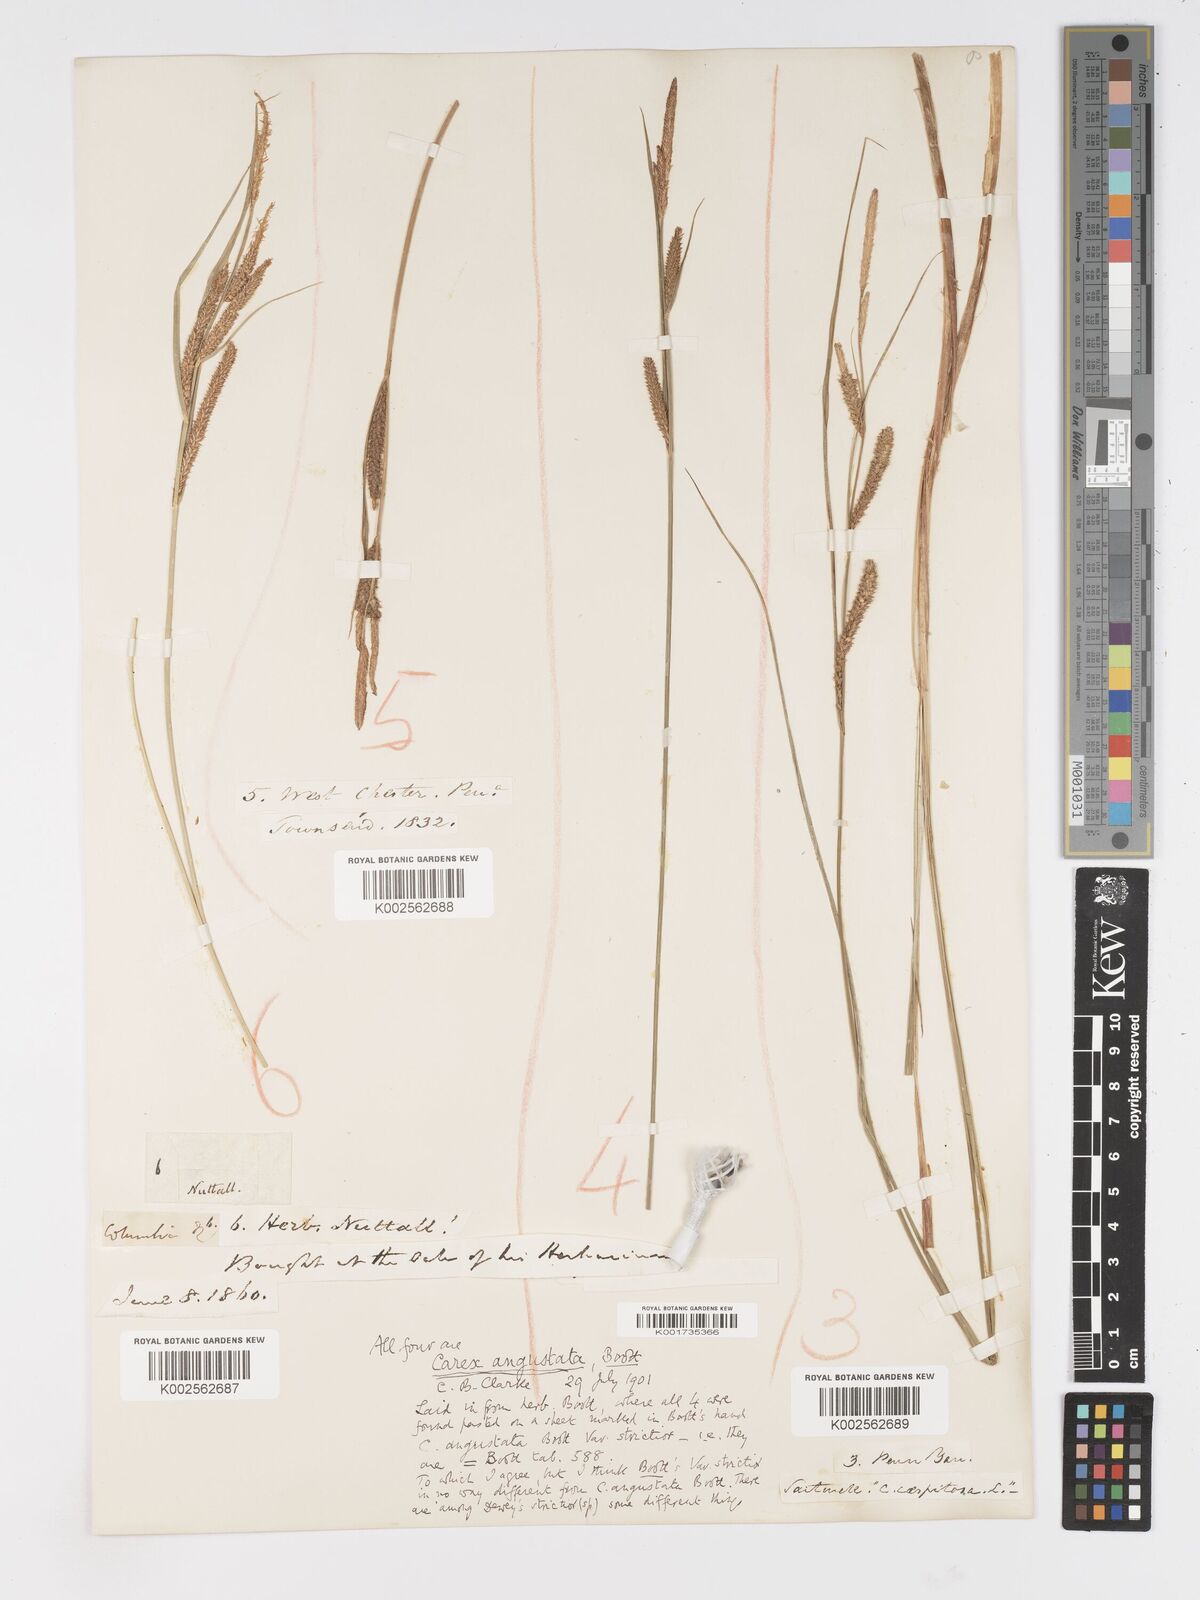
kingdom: Plantae
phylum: Tracheophyta
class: Liliopsida
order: Poales
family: Cyperaceae
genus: Carex
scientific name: Carex stricta
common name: Hummock sedge
